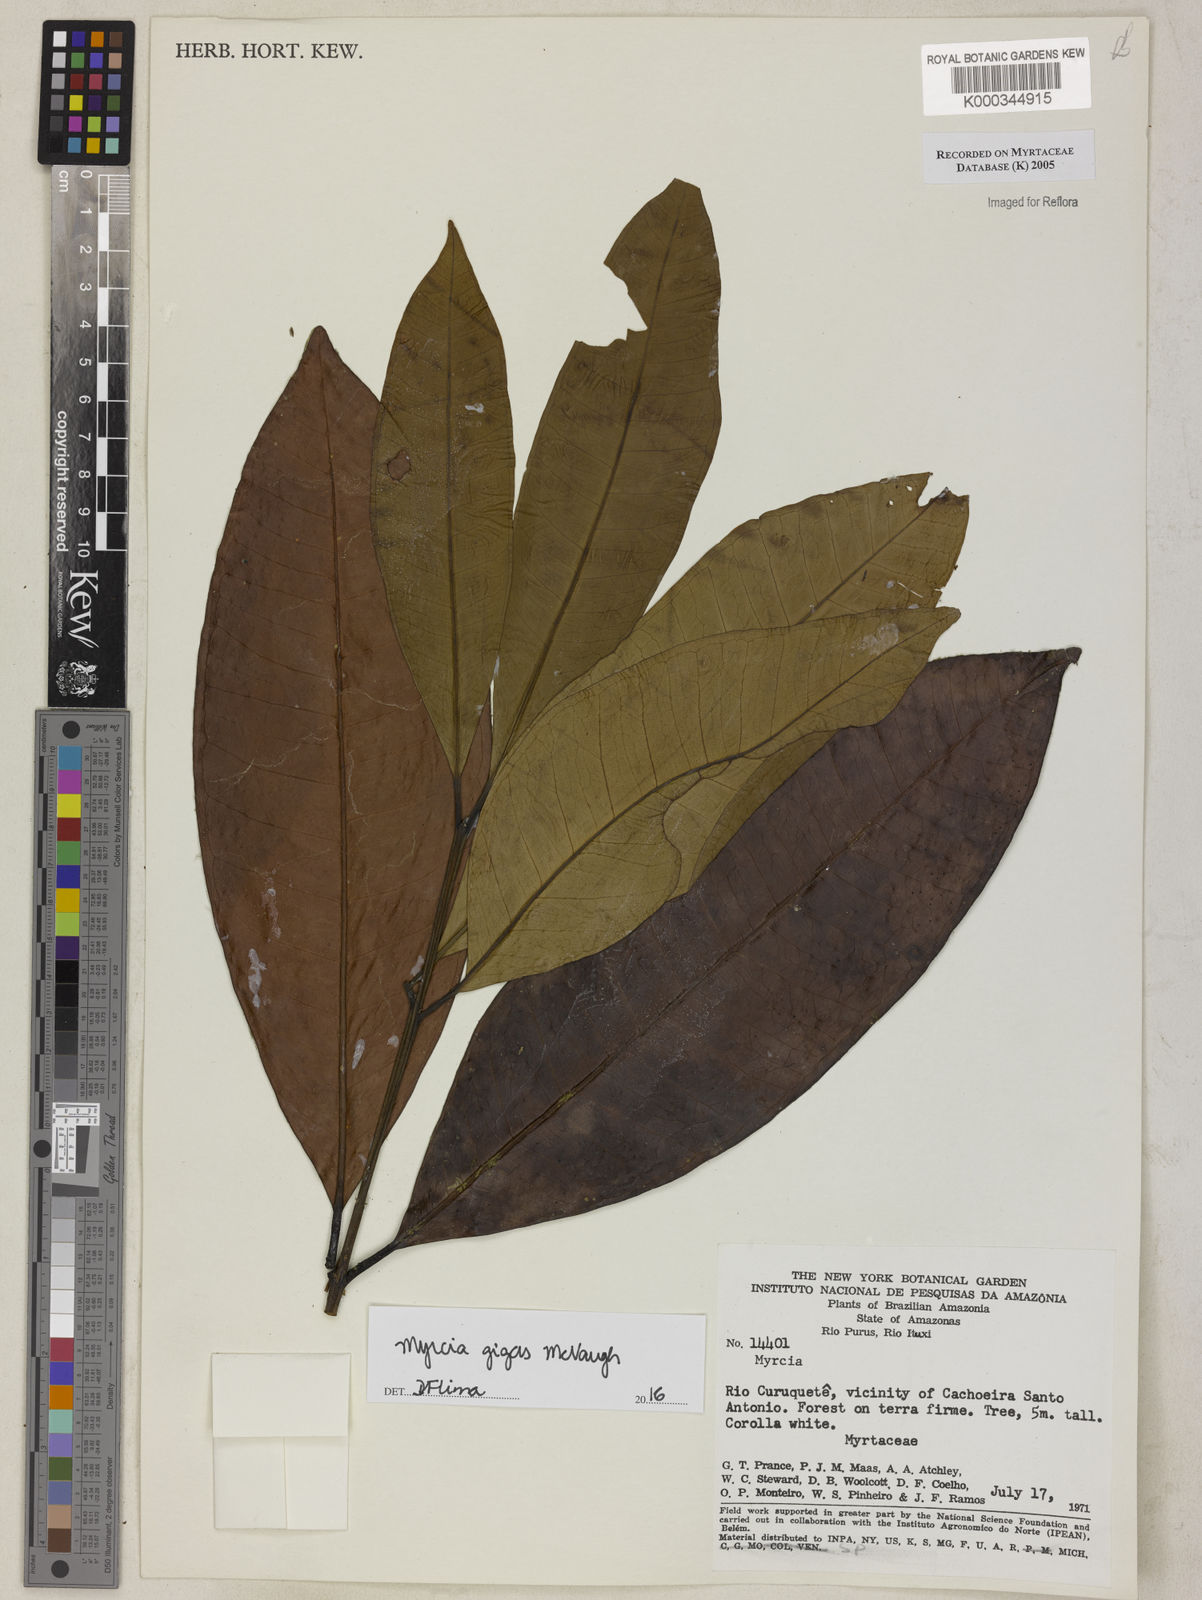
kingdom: Plantae
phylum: Tracheophyta
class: Magnoliopsida
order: Myrtales
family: Myrtaceae
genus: Myrcia
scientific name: Myrcia
